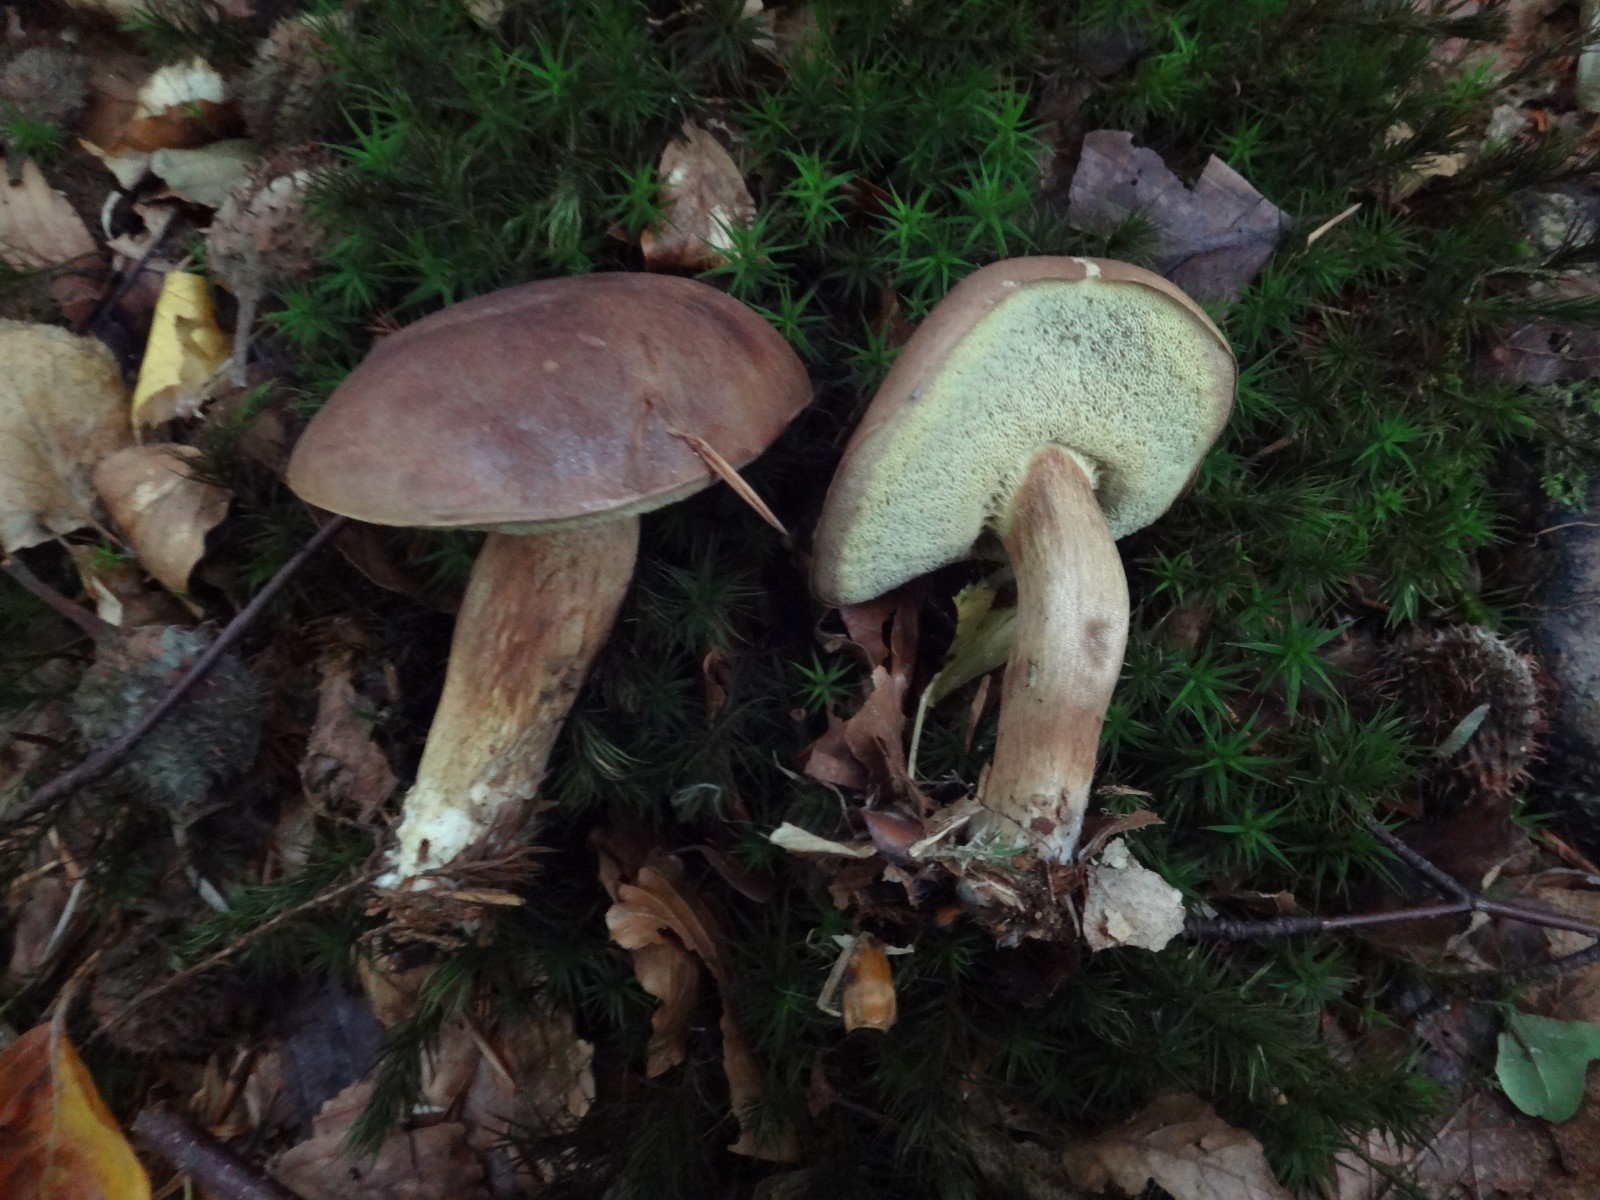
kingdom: Fungi
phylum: Basidiomycota
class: Agaricomycetes
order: Boletales
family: Boletaceae
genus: Imleria
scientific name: Imleria badia
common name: brunstokket rørhat
